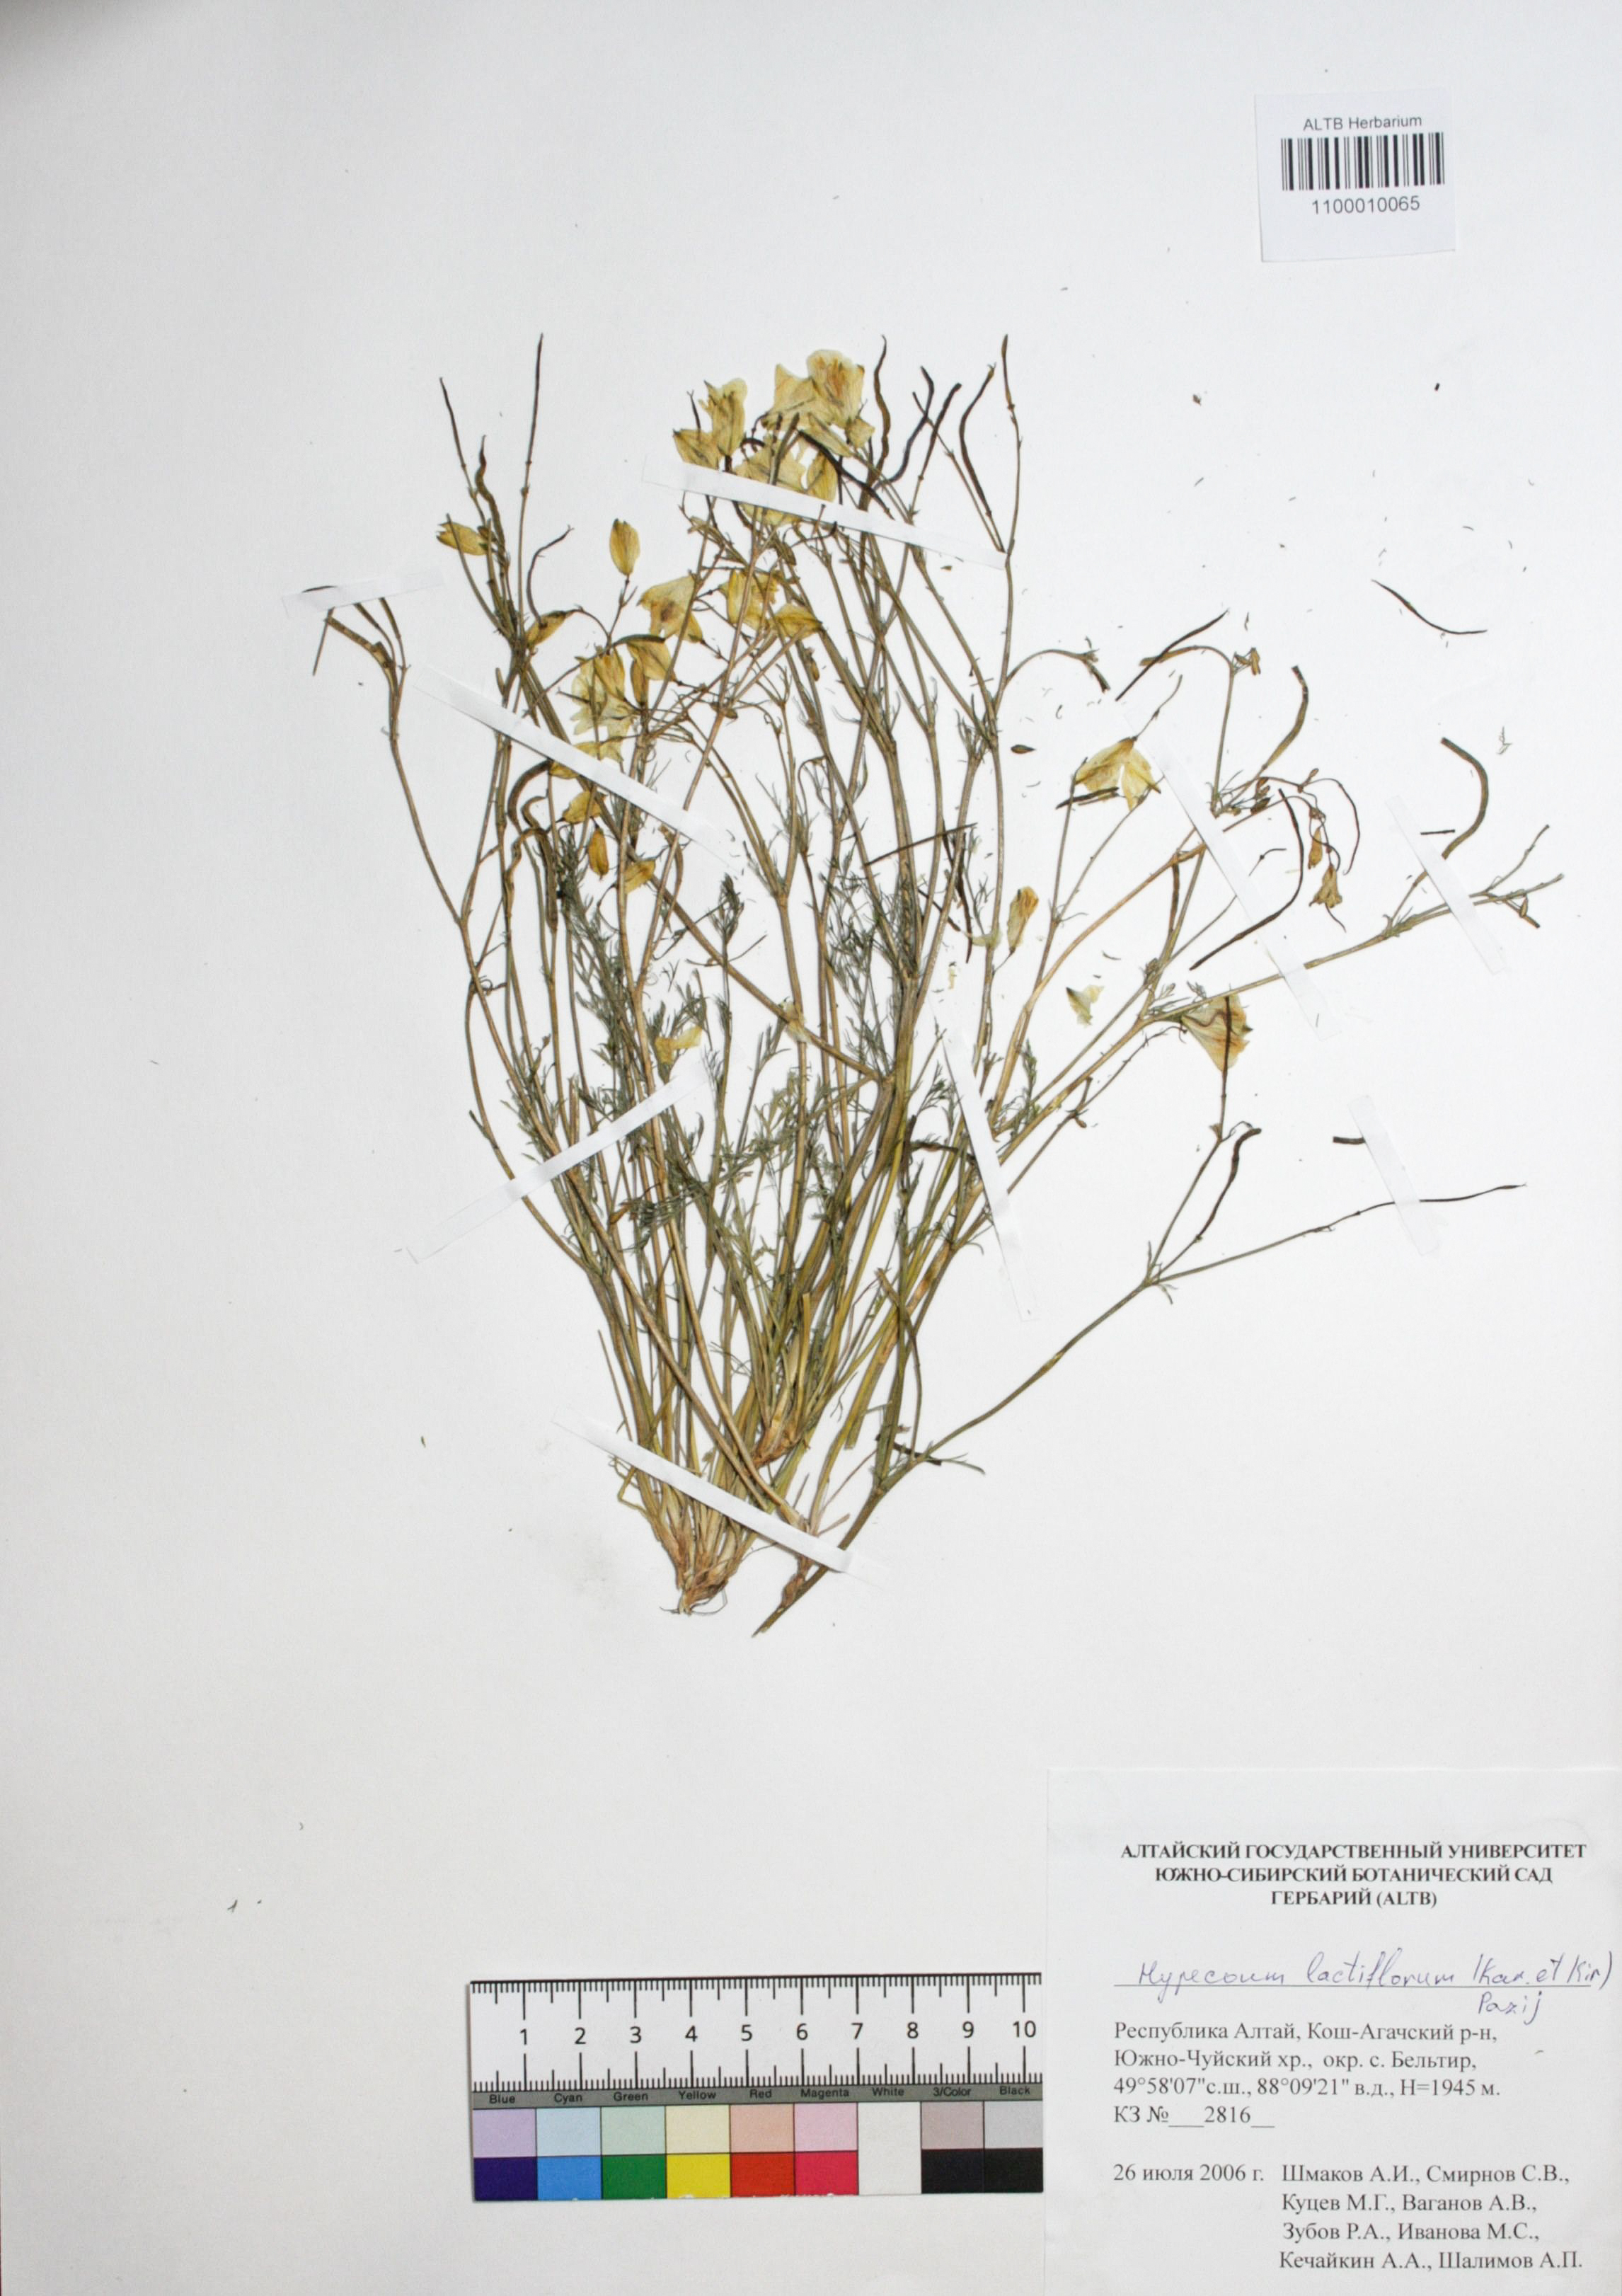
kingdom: Plantae
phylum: Tracheophyta
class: Magnoliopsida
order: Ranunculales
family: Papaveraceae
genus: Hypecoum
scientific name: Hypecoum lactiflorum
